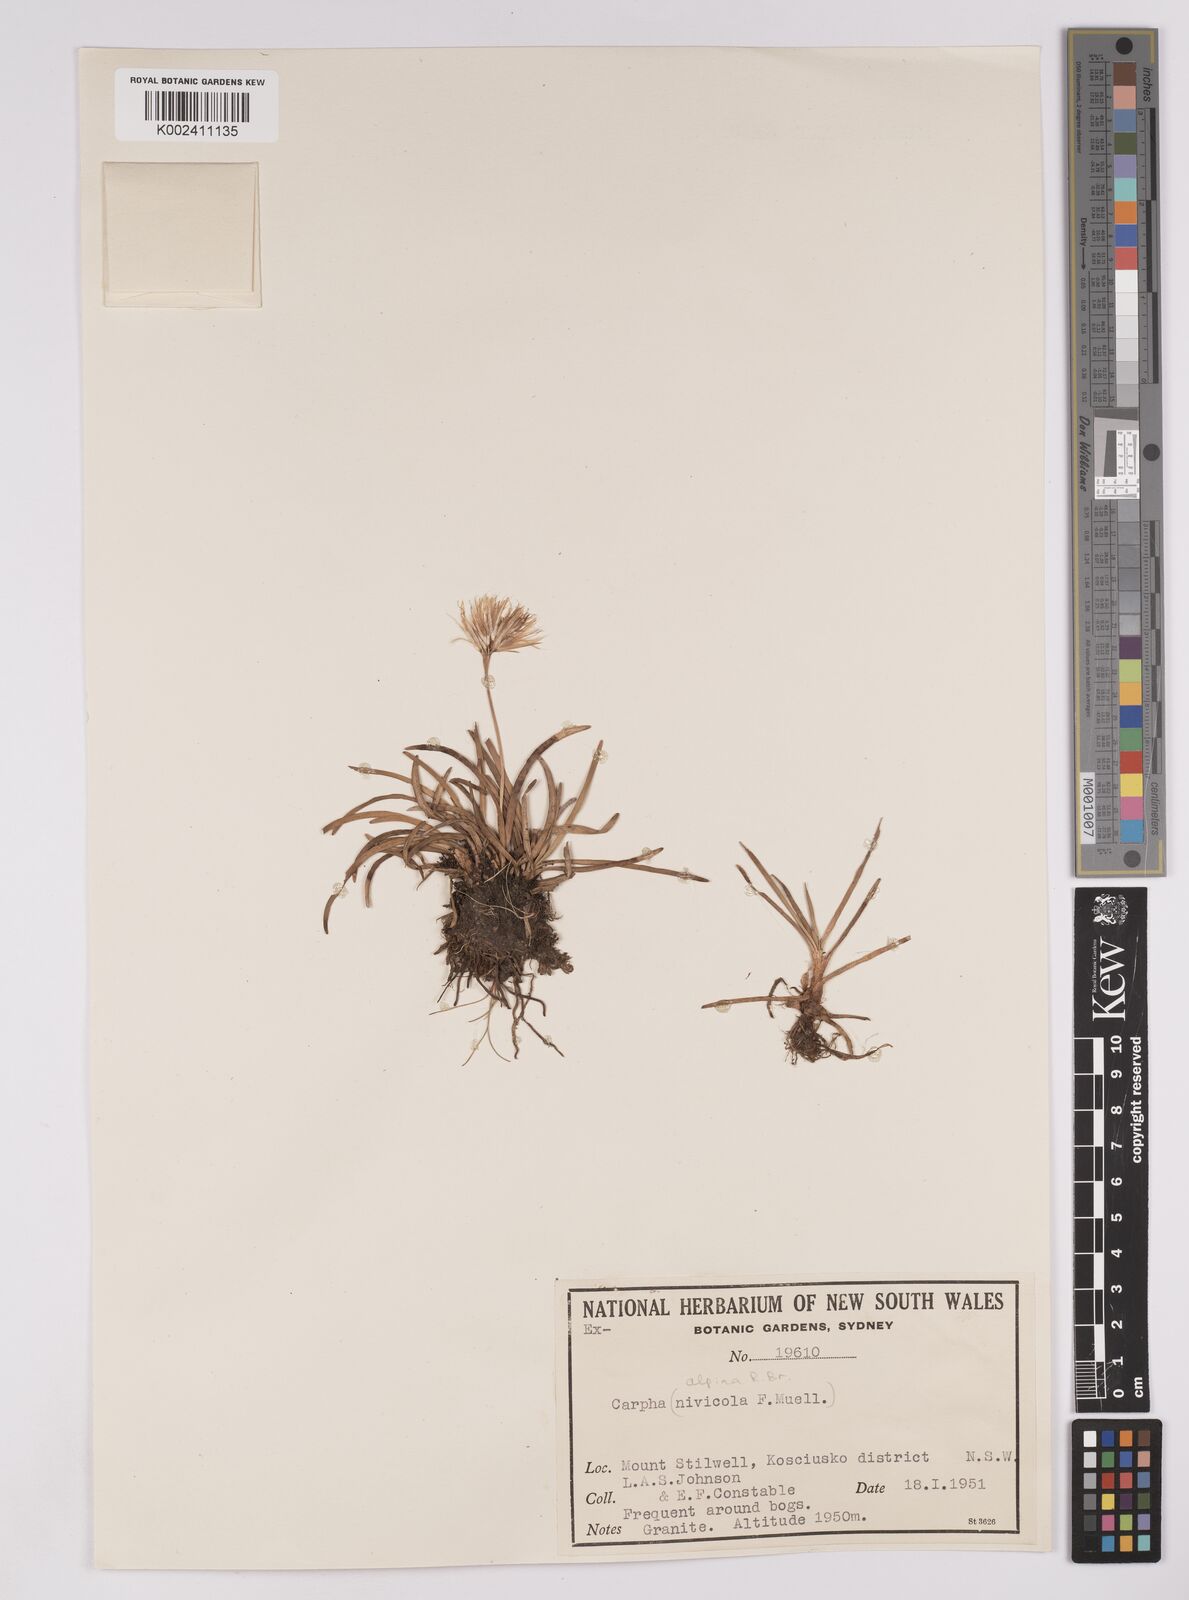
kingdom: Plantae
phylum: Tracheophyta
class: Liliopsida
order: Poales
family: Cyperaceae
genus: Carpha
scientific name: Carpha alpina
